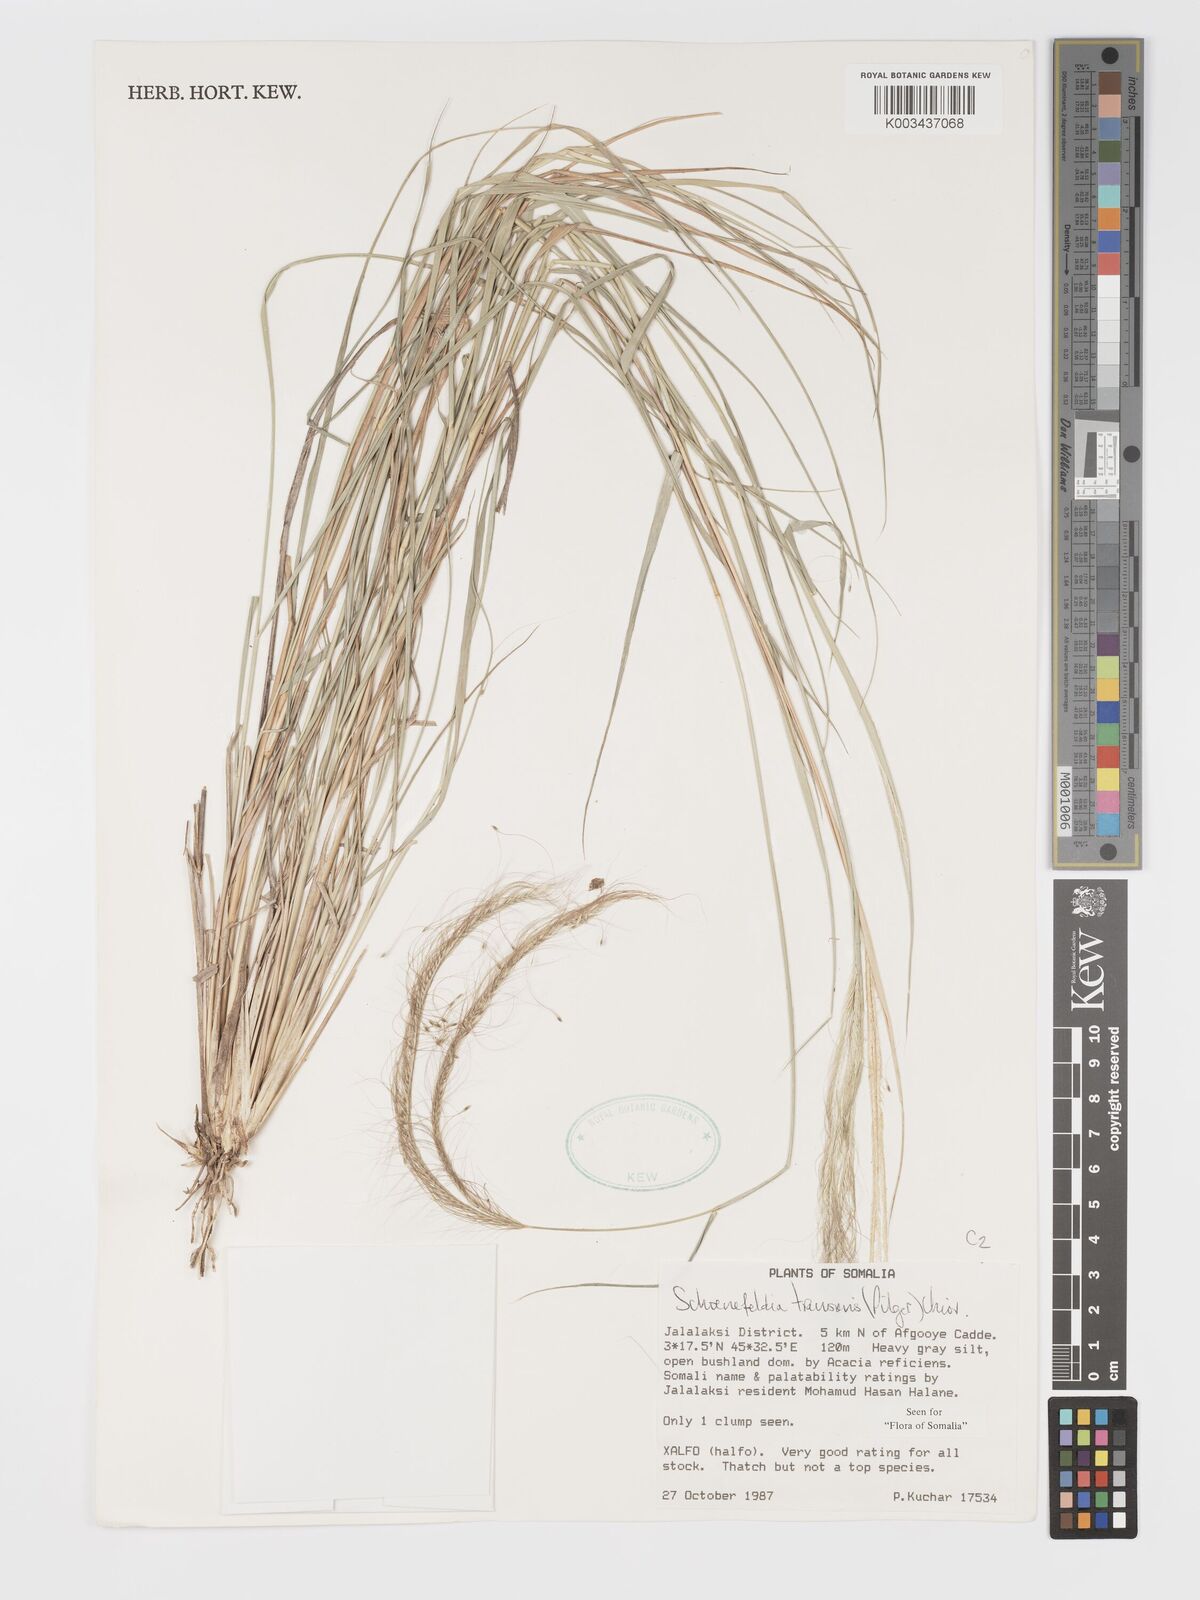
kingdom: Plantae
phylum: Tracheophyta
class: Liliopsida
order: Poales
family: Poaceae
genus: Schoenefeldia
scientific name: Schoenefeldia transiens
